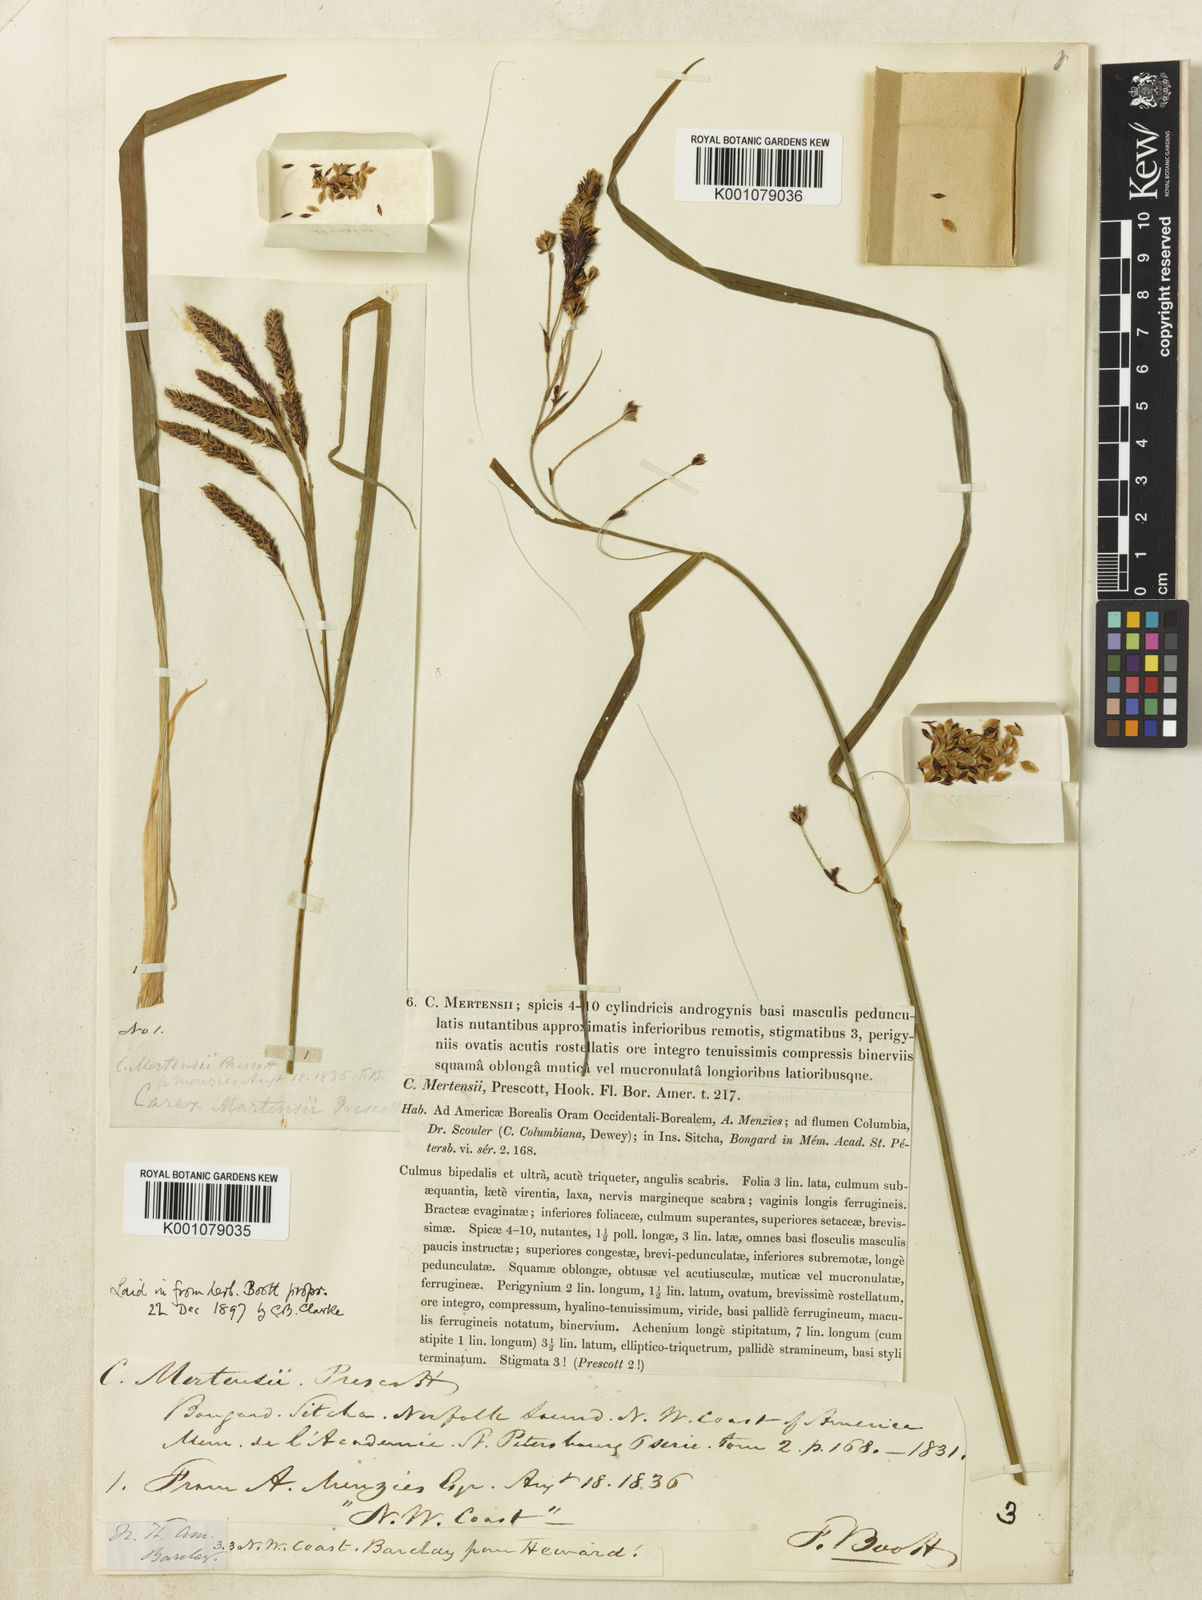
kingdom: Plantae
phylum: Tracheophyta
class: Liliopsida
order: Poales
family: Cyperaceae
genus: Carex
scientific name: Carex mertensii
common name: Mertens' sedge
